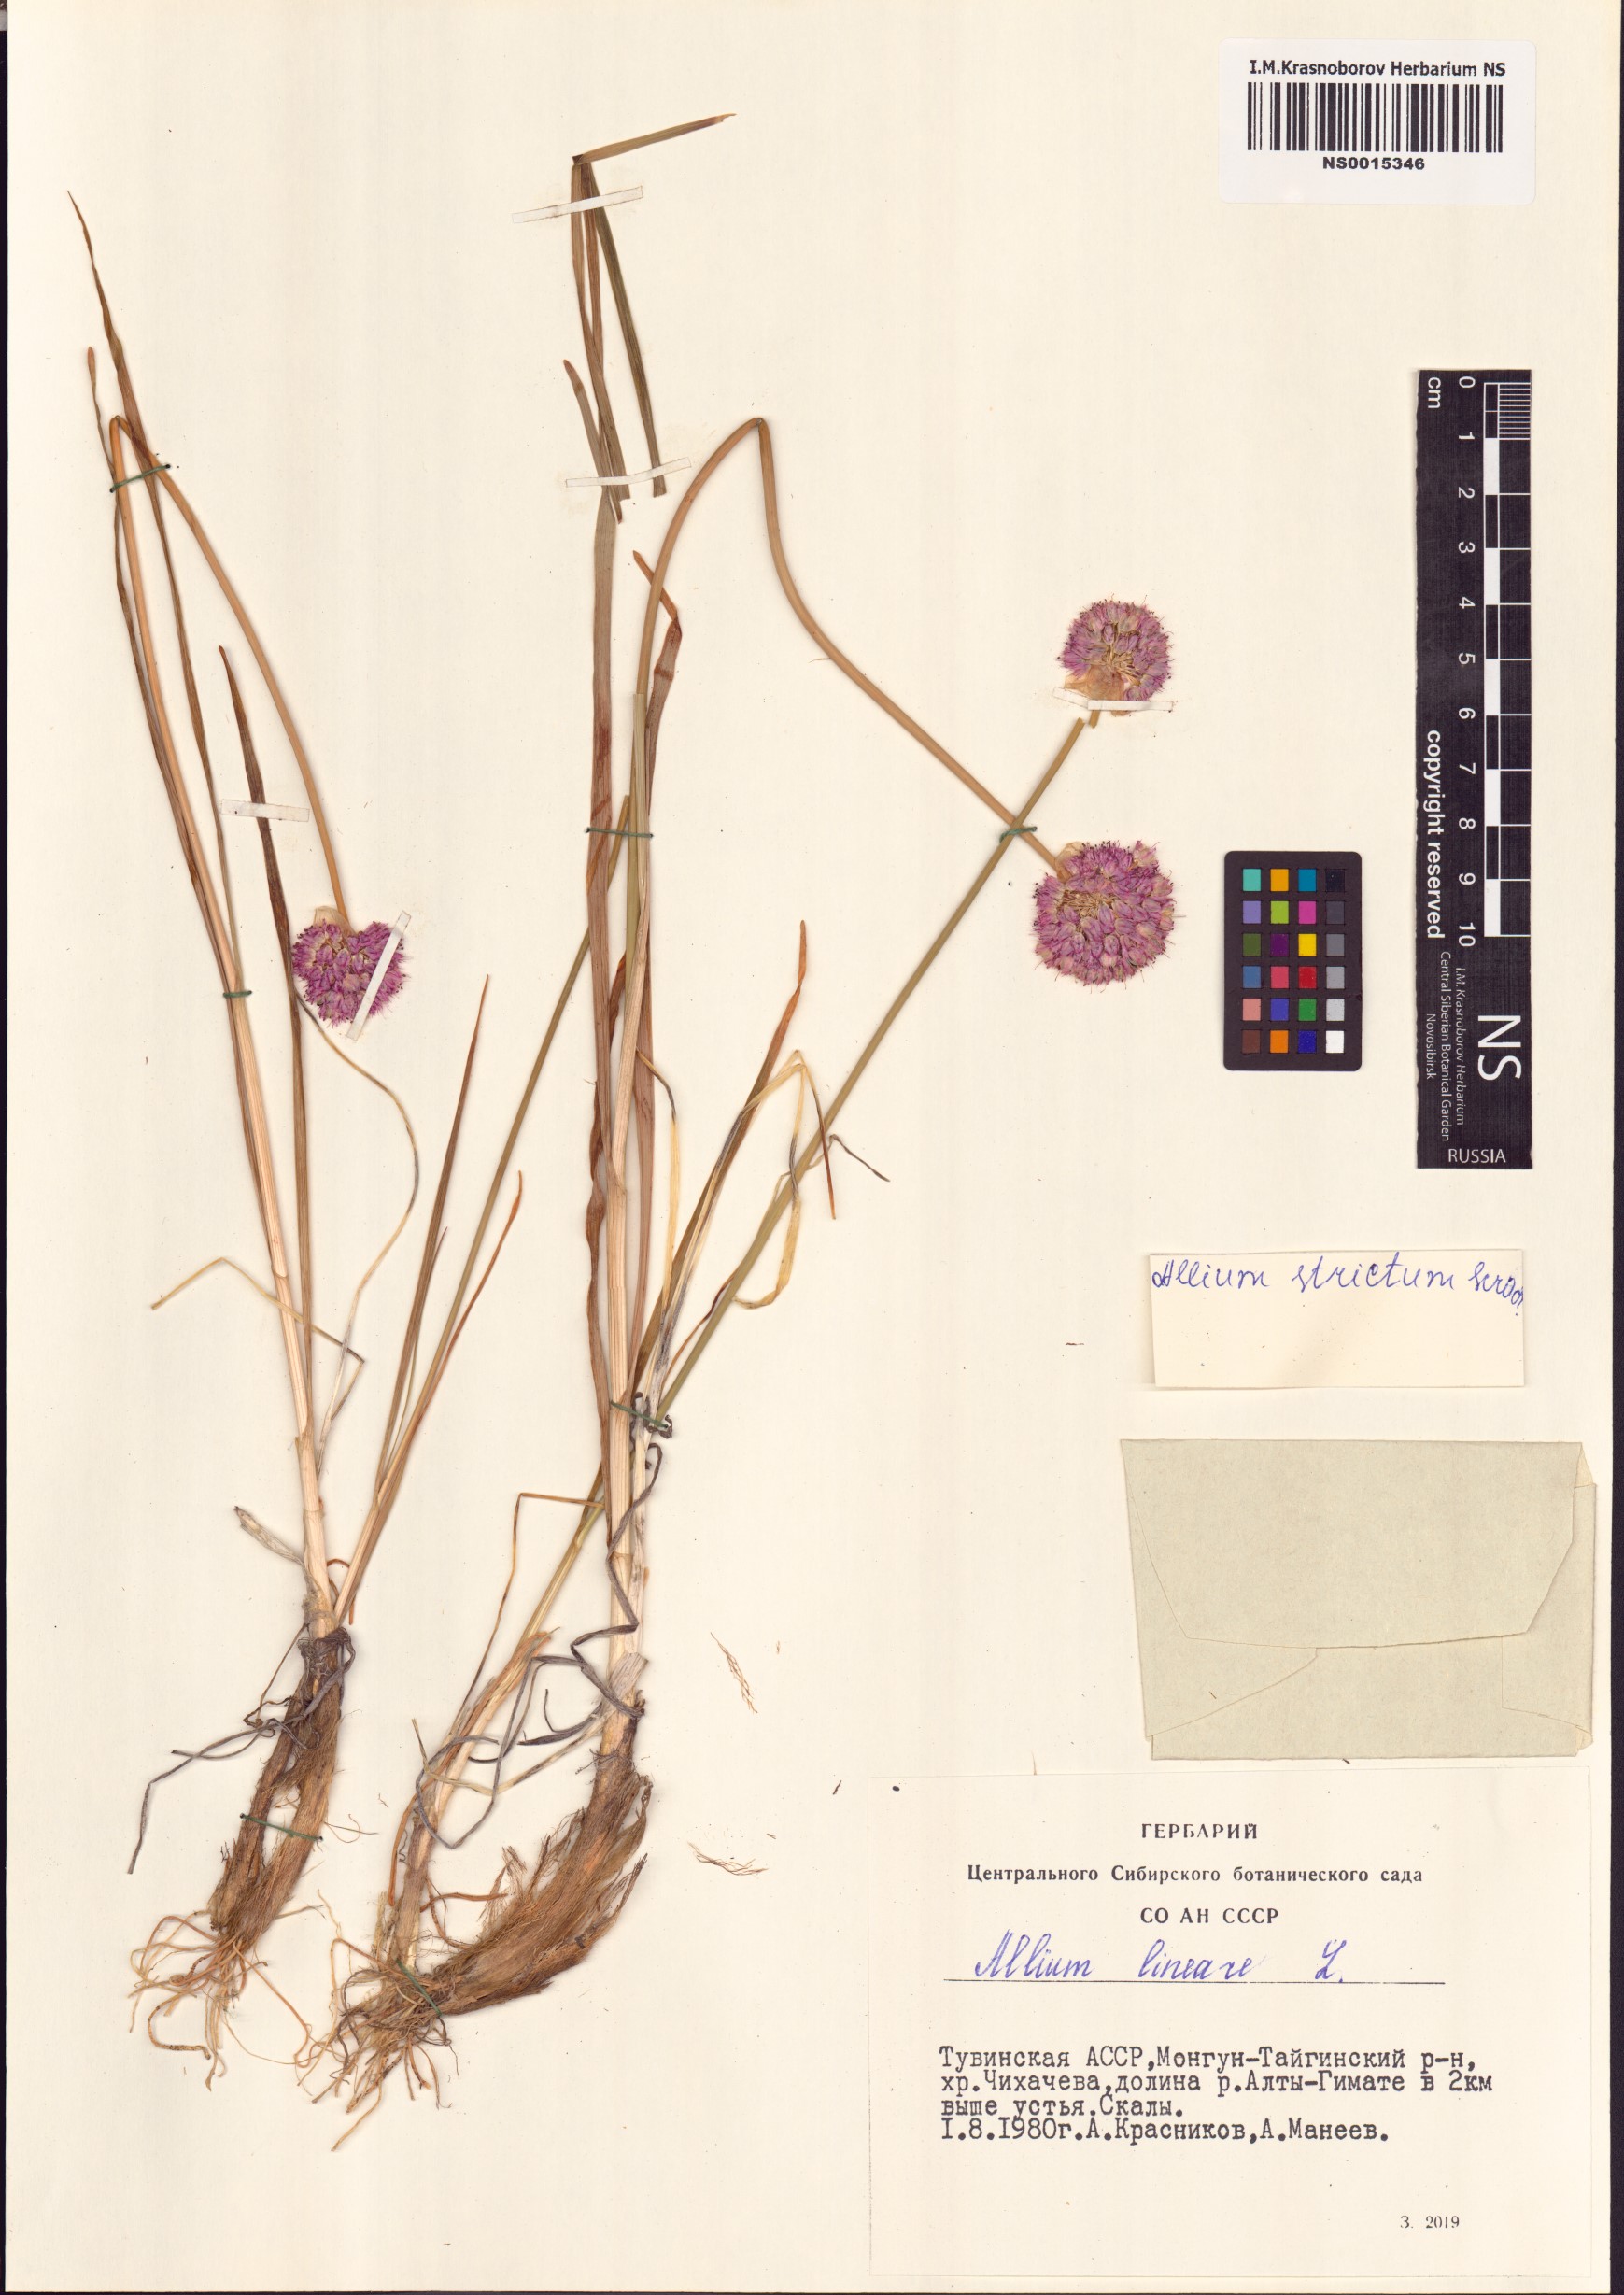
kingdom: Plantae
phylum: Tracheophyta
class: Liliopsida
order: Asparagales
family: Amaryllidaceae
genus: Allium
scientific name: Allium strictum
